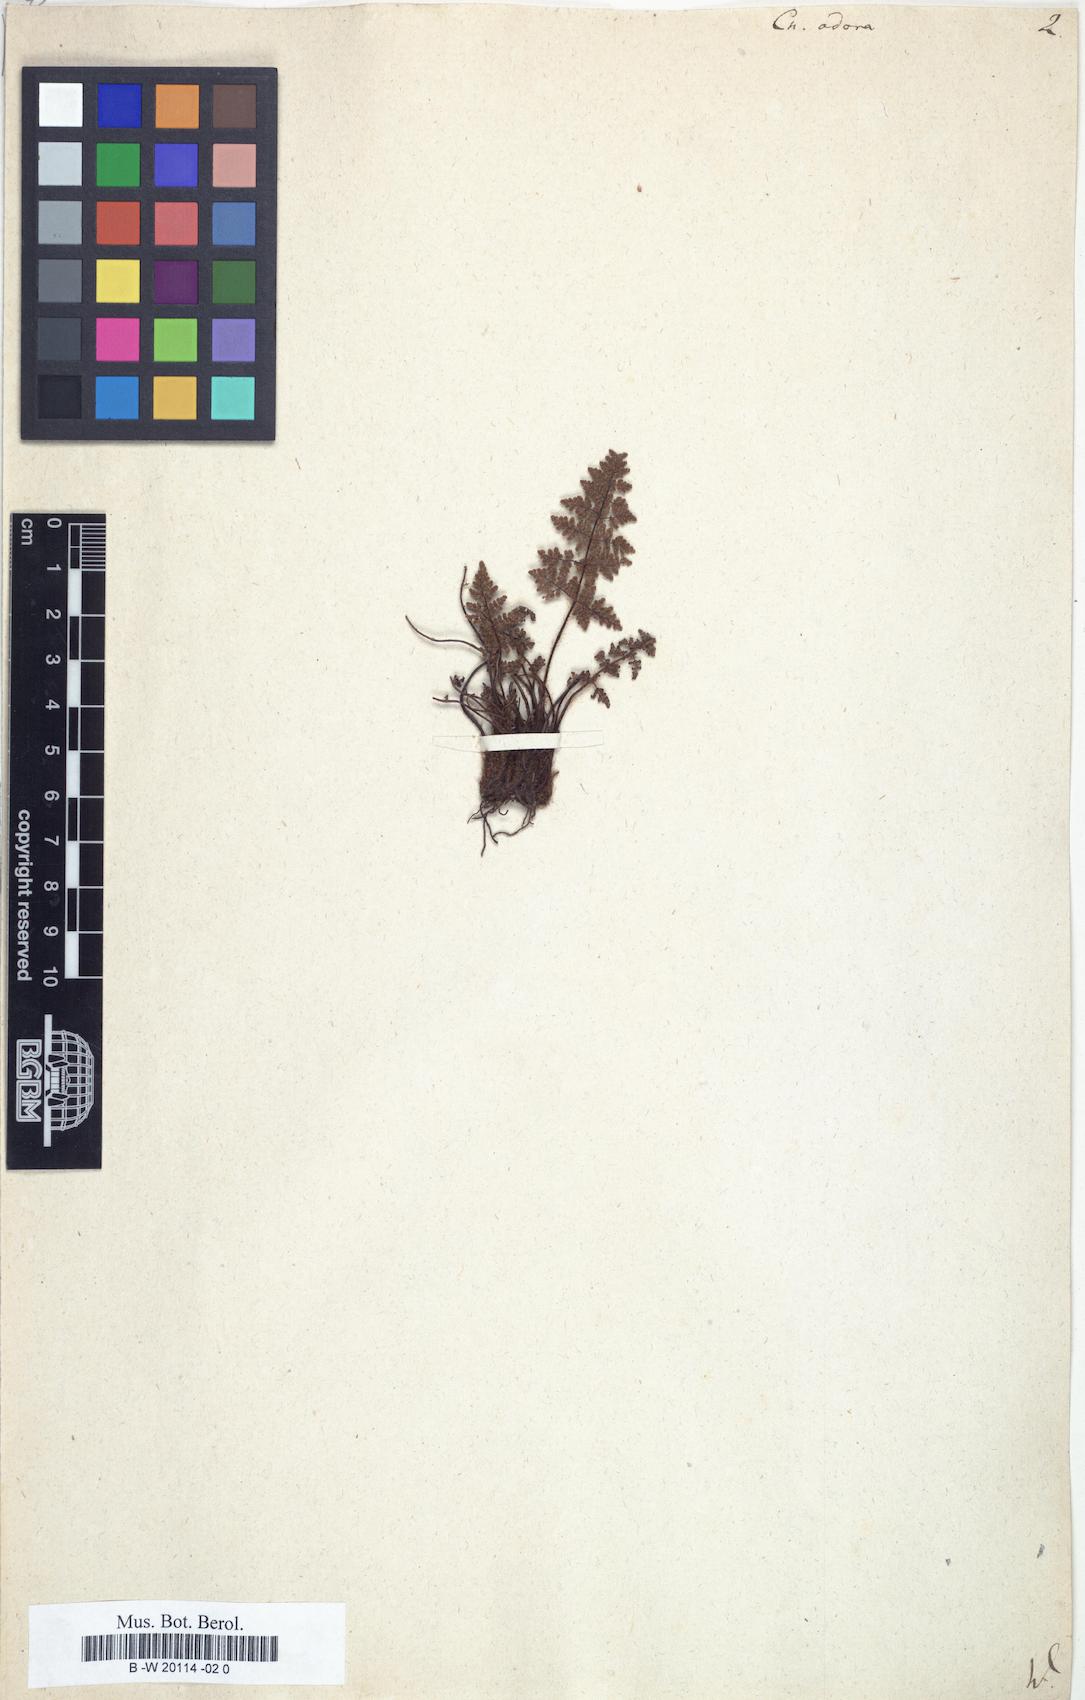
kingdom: Plantae
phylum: Tracheophyta
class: Polypodiopsida
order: Polypodiales
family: Pteridaceae
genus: Oeosporangium
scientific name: Oeosporangium pteridioides
